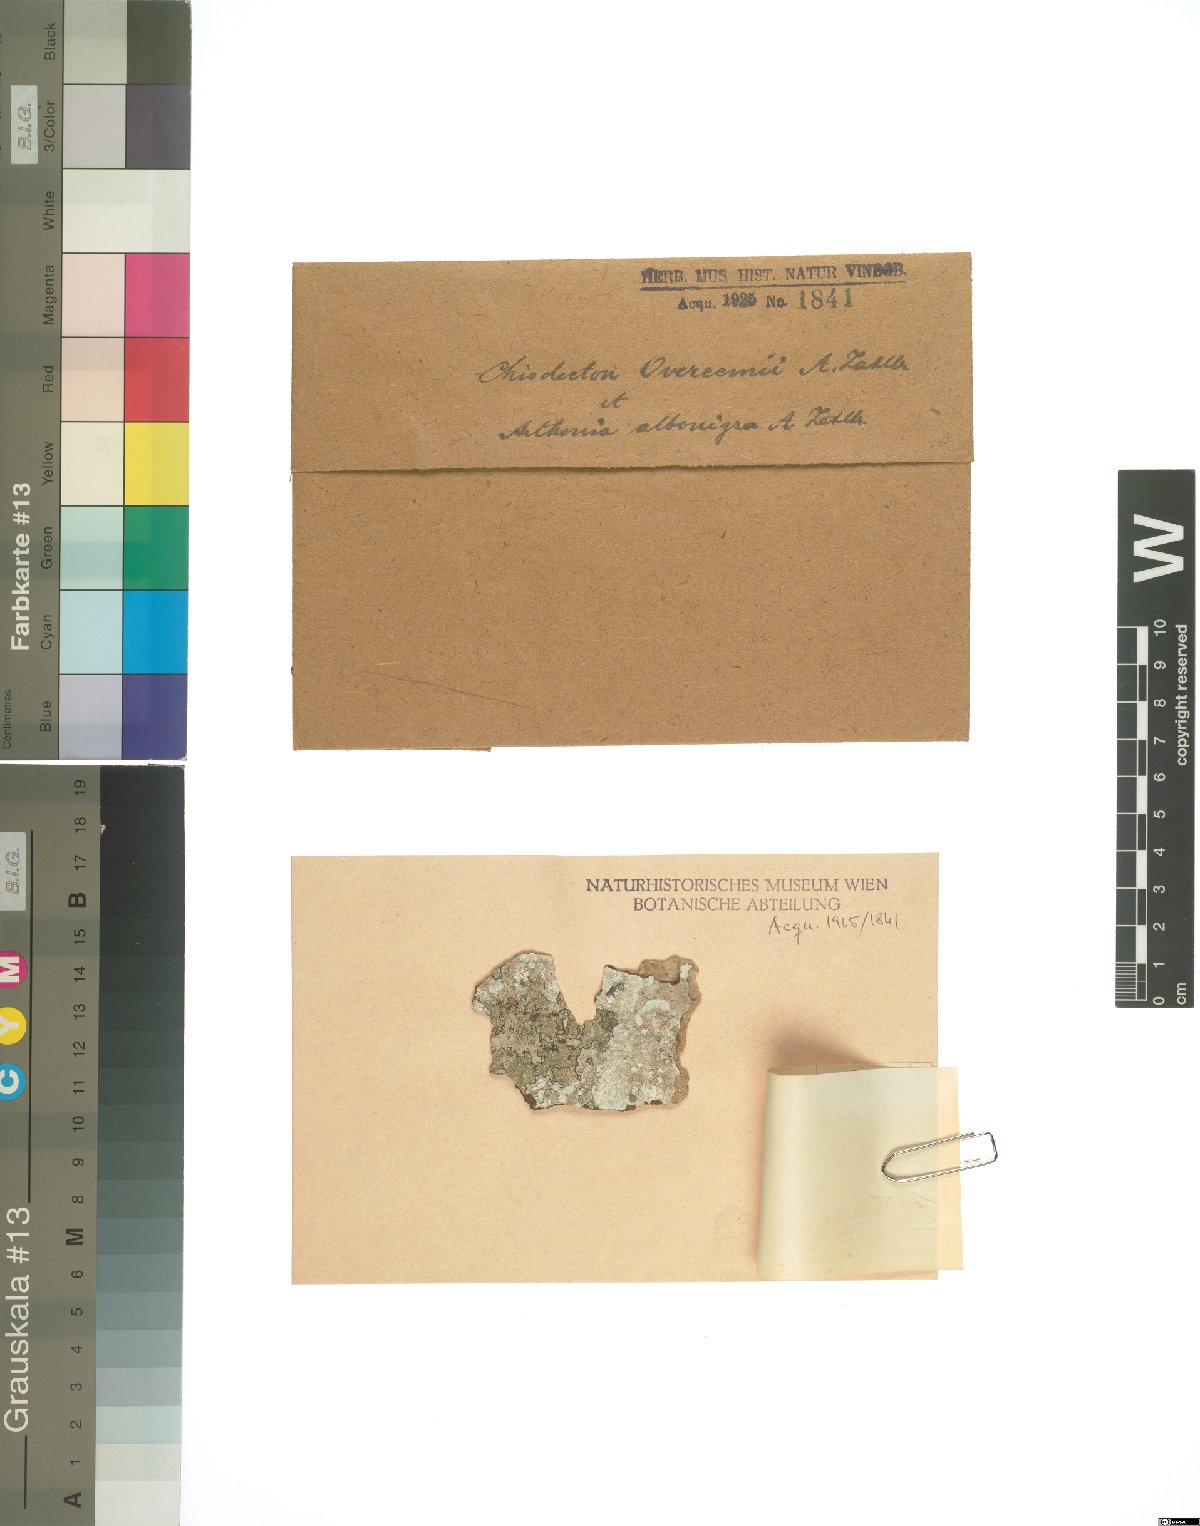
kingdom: Fungi
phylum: Ascomycota
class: Arthoniomycetes
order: Arthoniales
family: Roccellaceae
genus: Chiodecton
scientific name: Chiodecton
